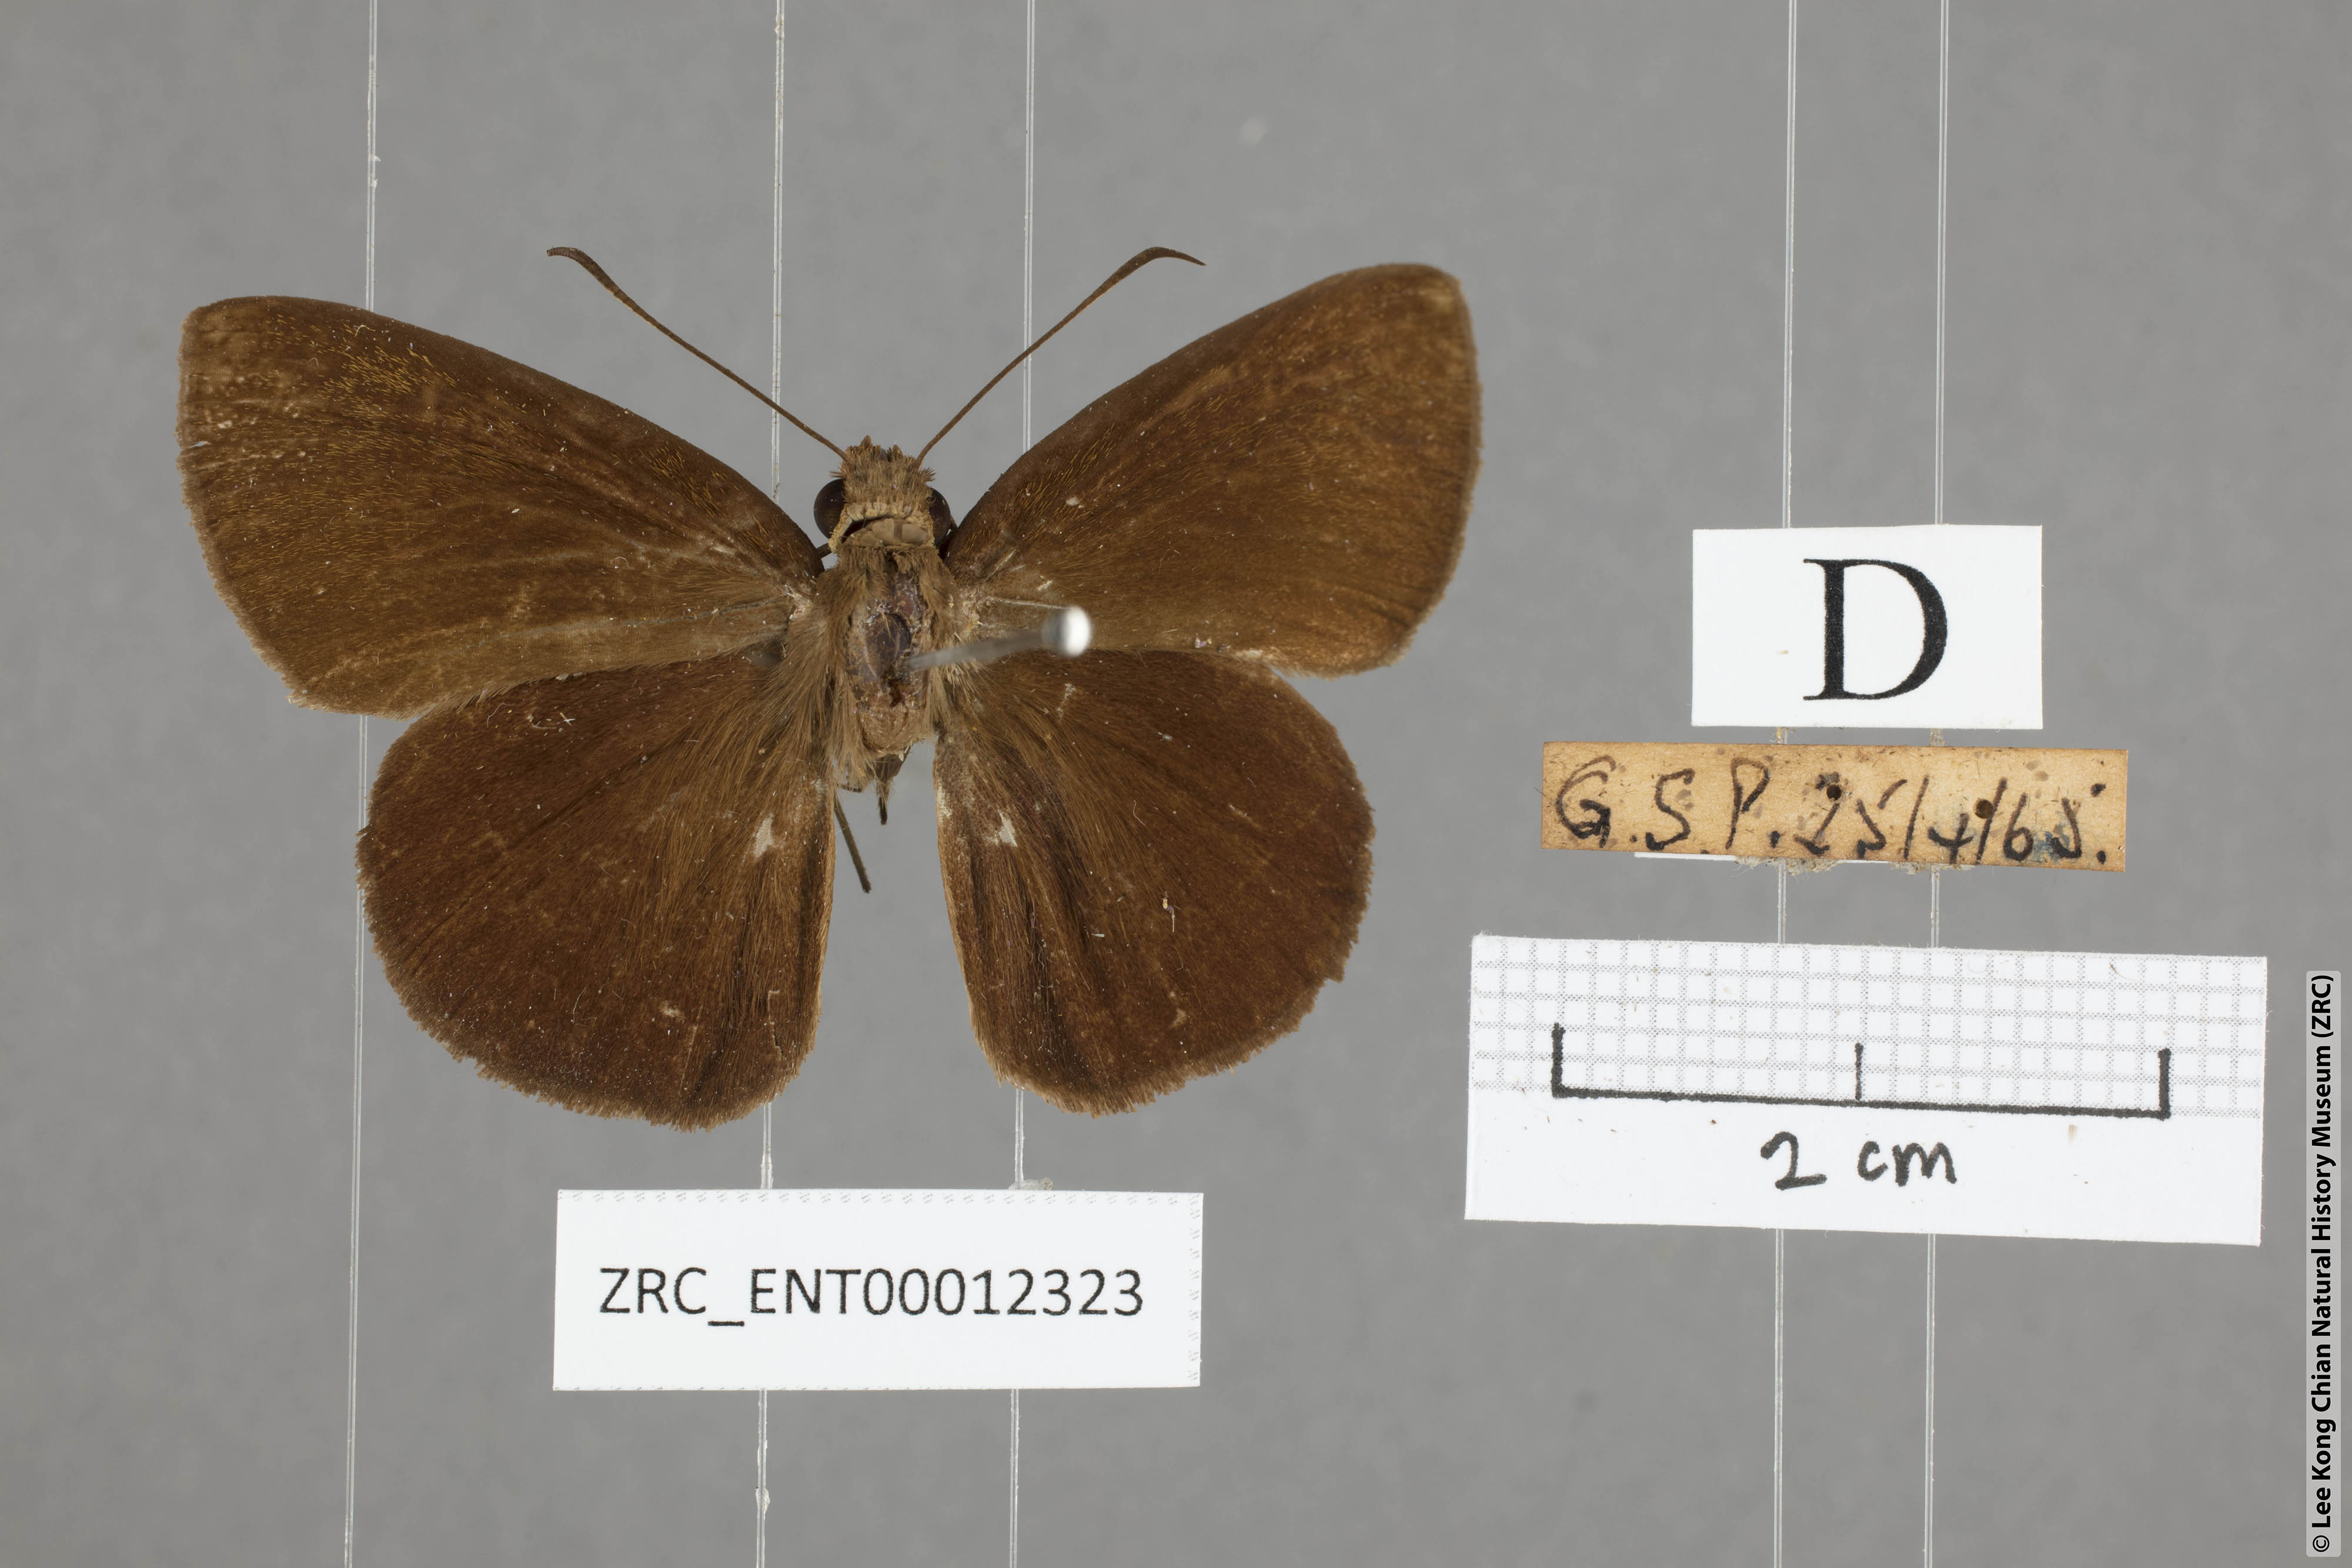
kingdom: Animalia
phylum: Arthropoda
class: Insecta
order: Lepidoptera
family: Hesperiidae
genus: Ancistroides
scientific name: Ancistroides nigrita
